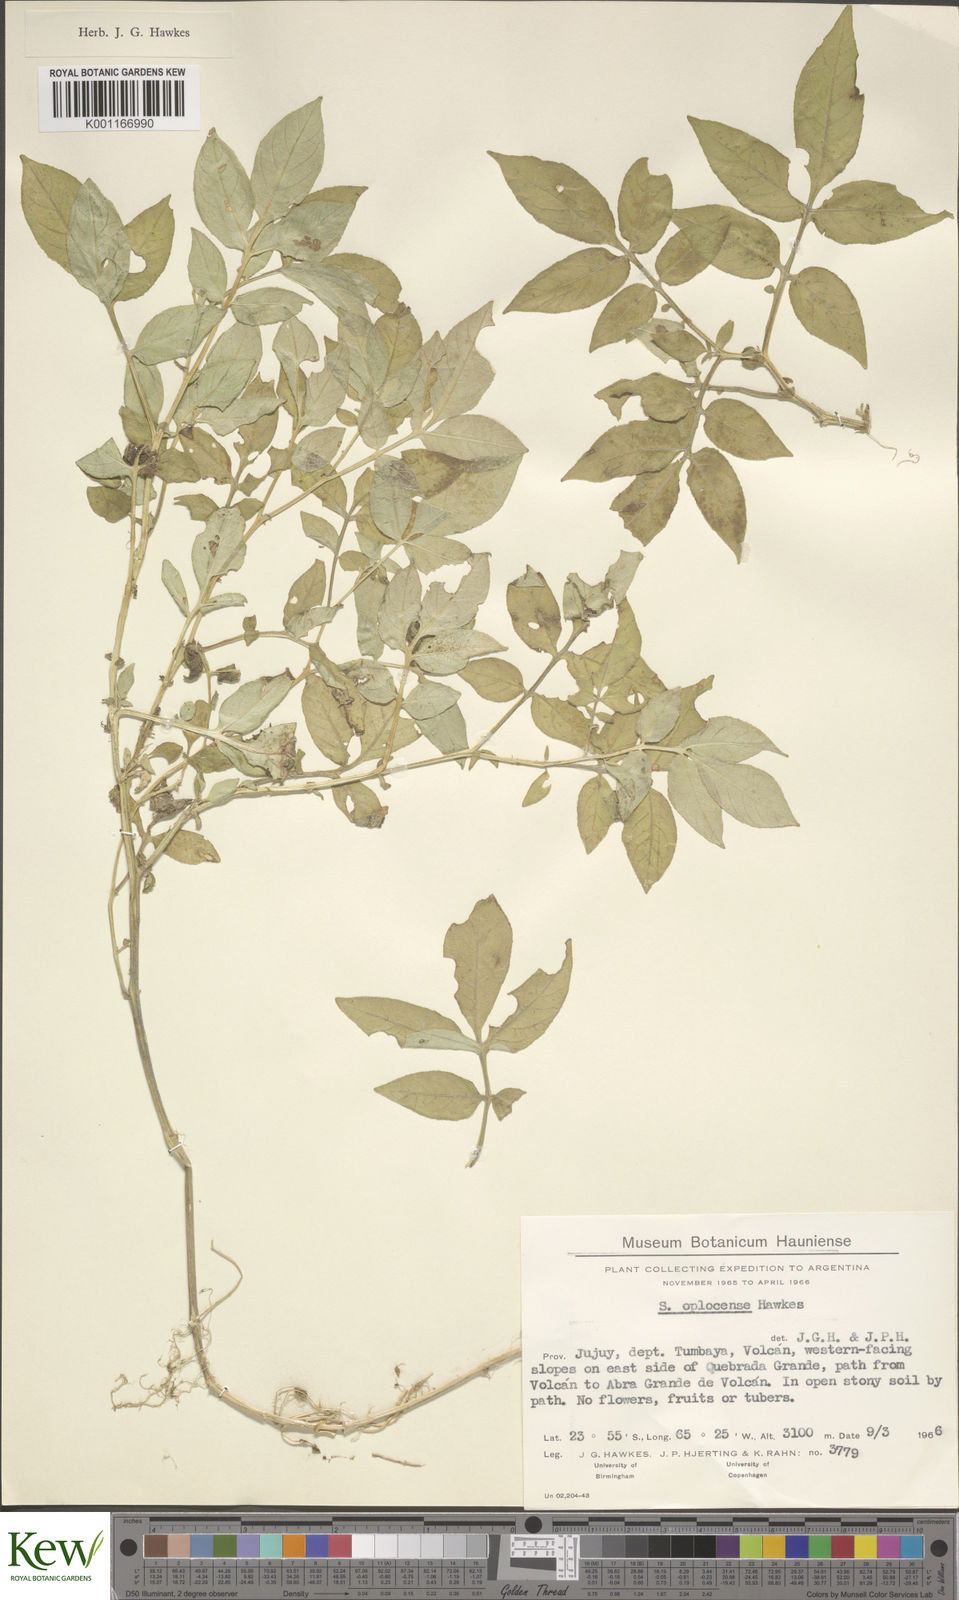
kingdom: Plantae
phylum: Tracheophyta
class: Magnoliopsida
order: Solanales
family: Solanaceae
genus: Solanum
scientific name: Solanum brevicaule
